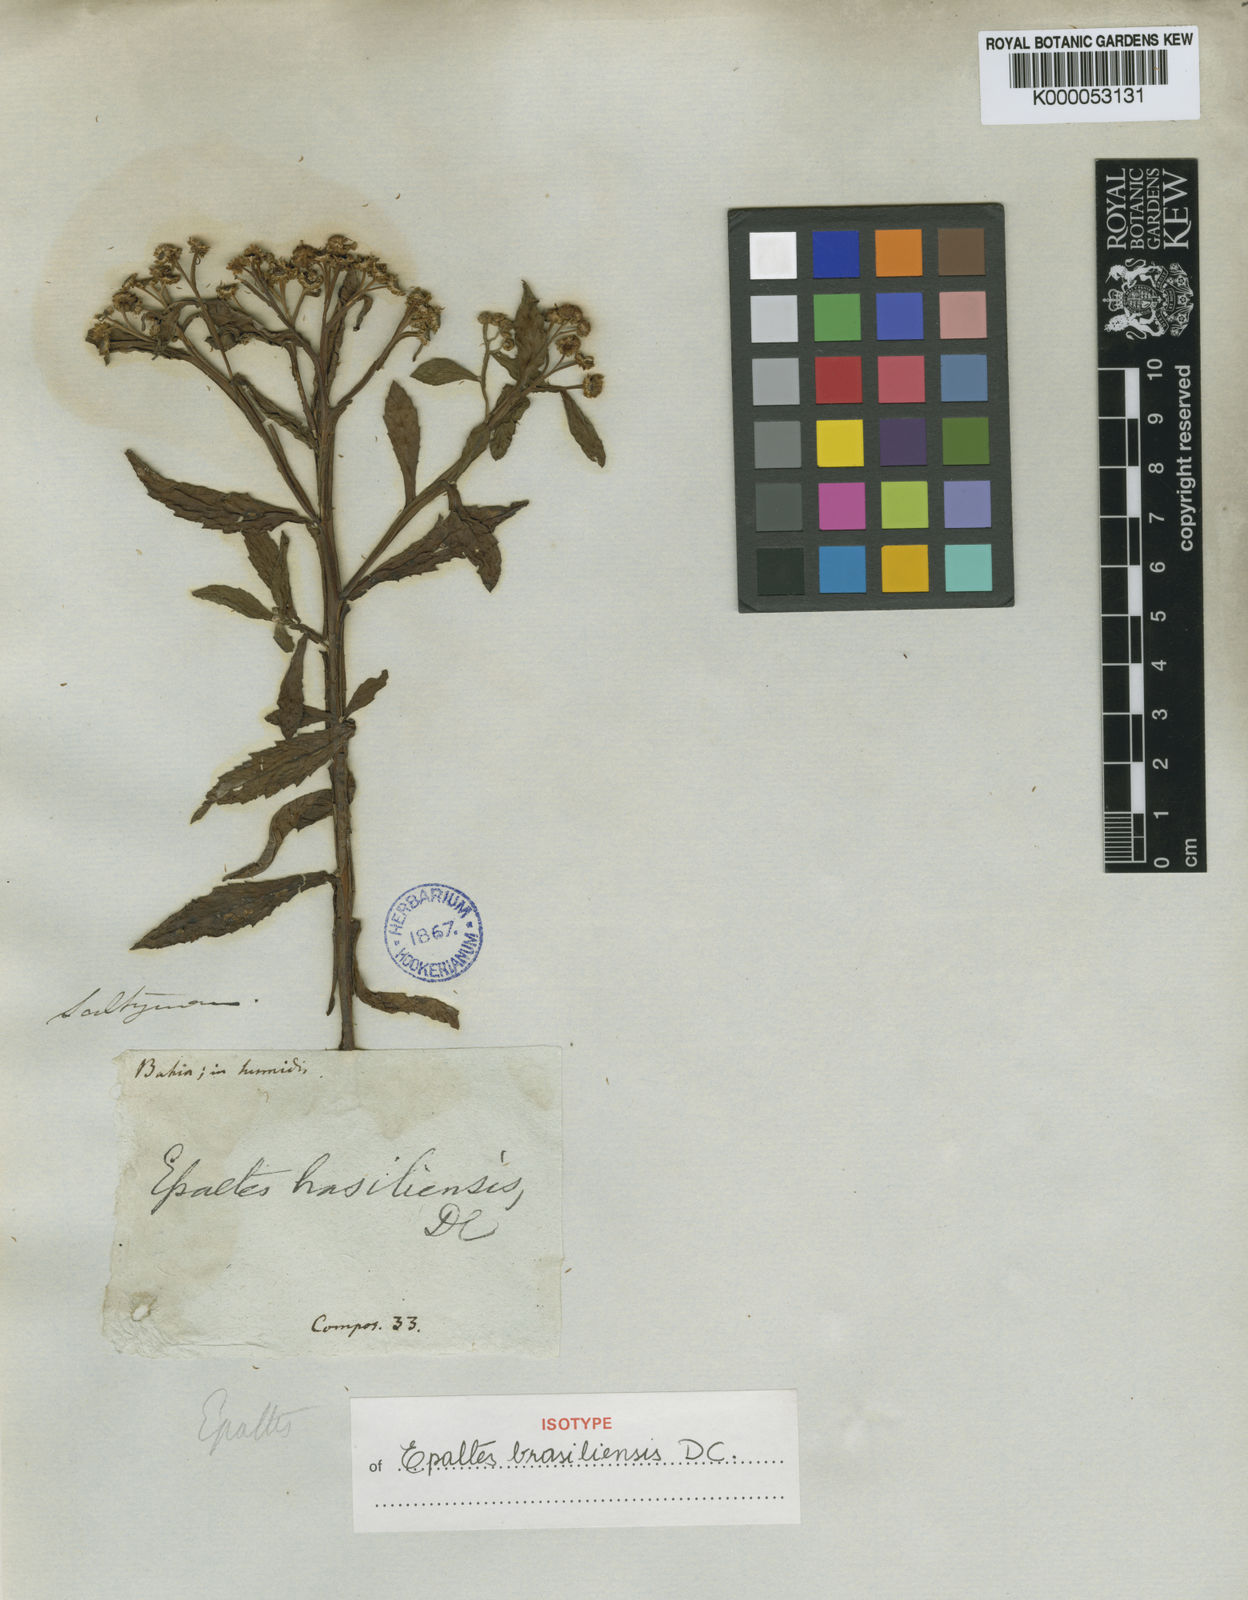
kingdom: Plantae
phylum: Tracheophyta
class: Magnoliopsida
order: Asterales
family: Asteraceae
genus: Epaltes
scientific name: Epaltes brasiliensis
